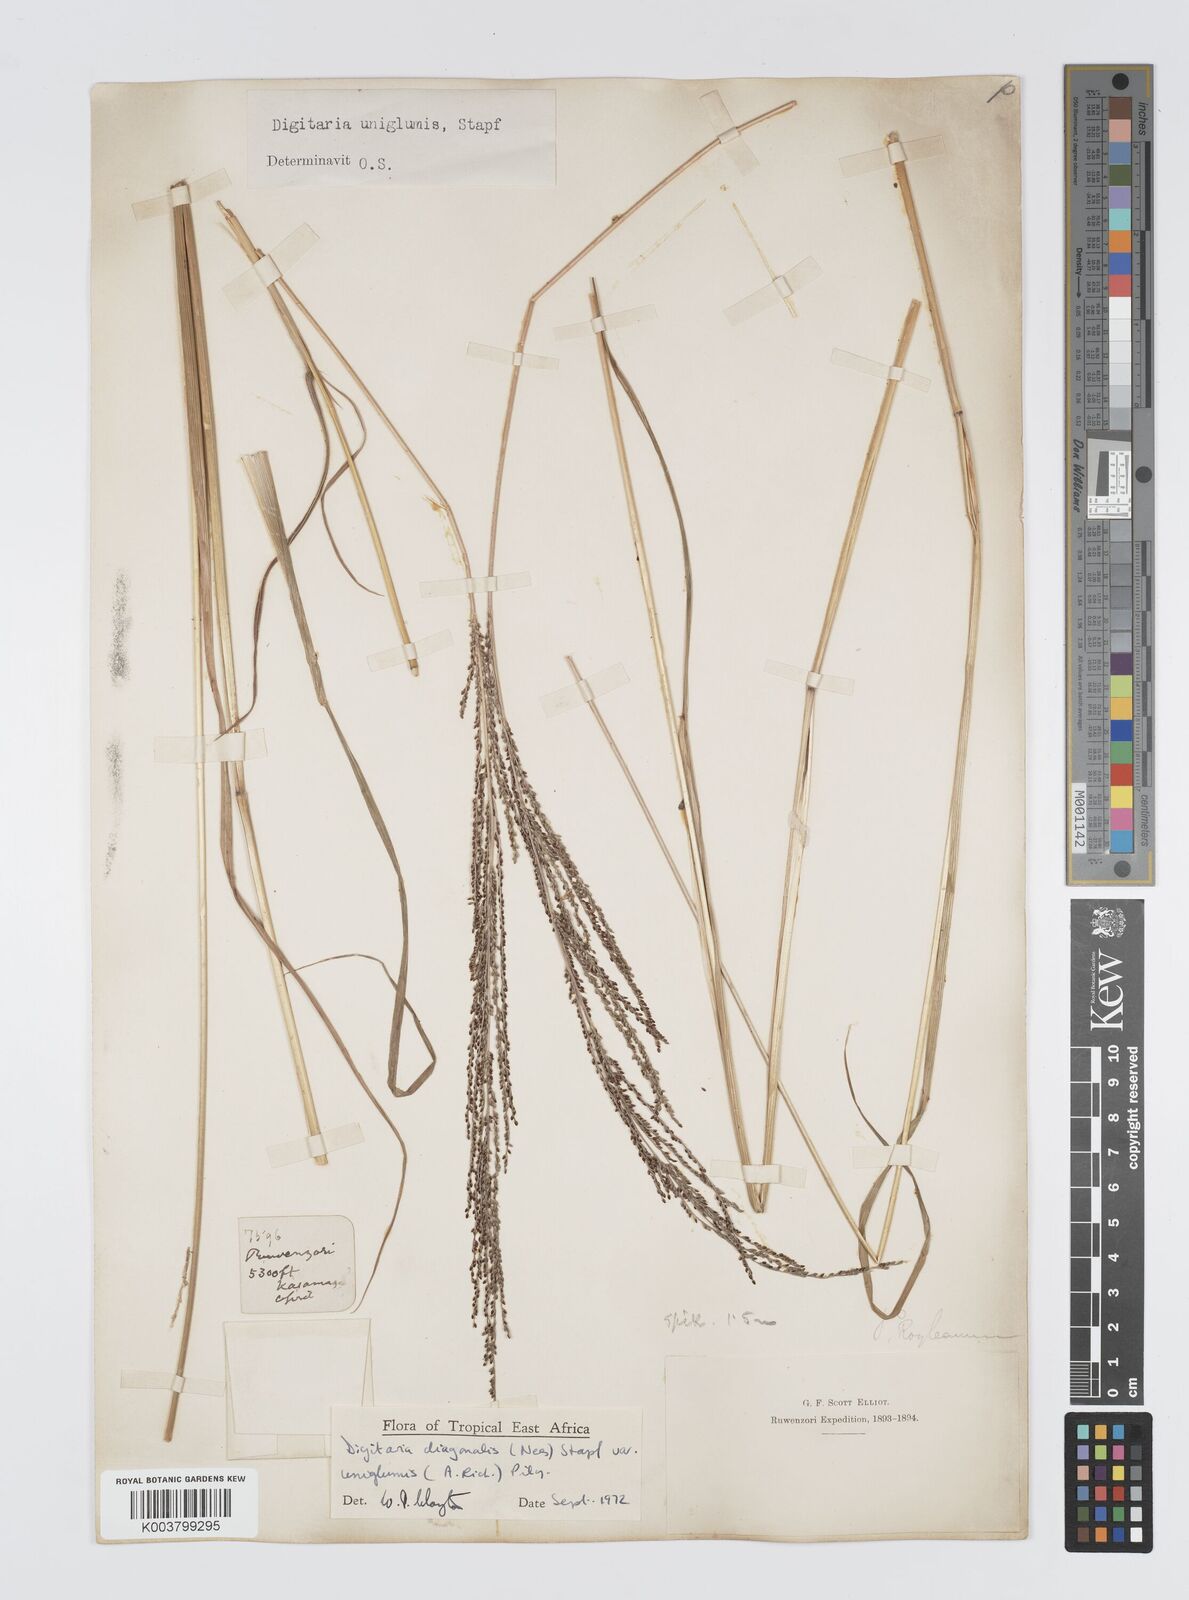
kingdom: Plantae
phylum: Tracheophyta
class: Liliopsida
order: Poales
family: Poaceae
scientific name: Poaceae
